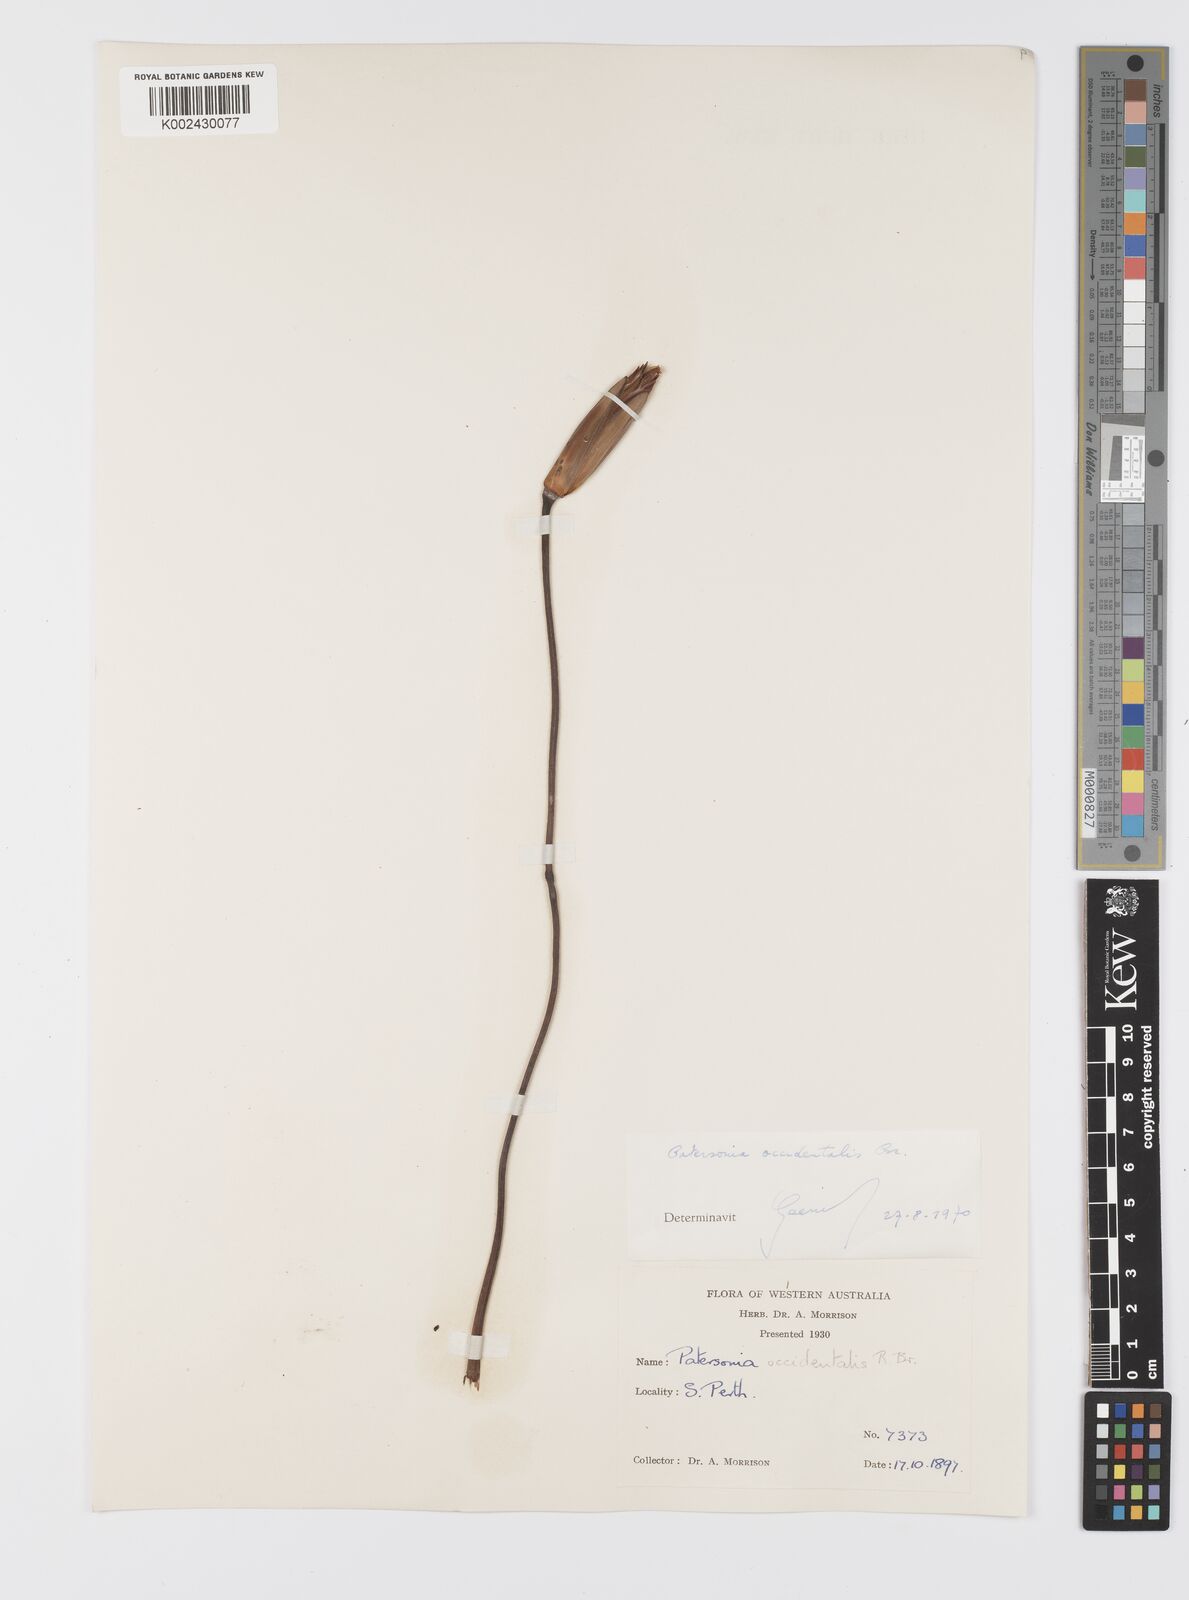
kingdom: Plantae
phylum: Tracheophyta
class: Liliopsida
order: Asparagales
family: Iridaceae
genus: Patersonia
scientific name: Patersonia occidentalis
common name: Long purple-flag
